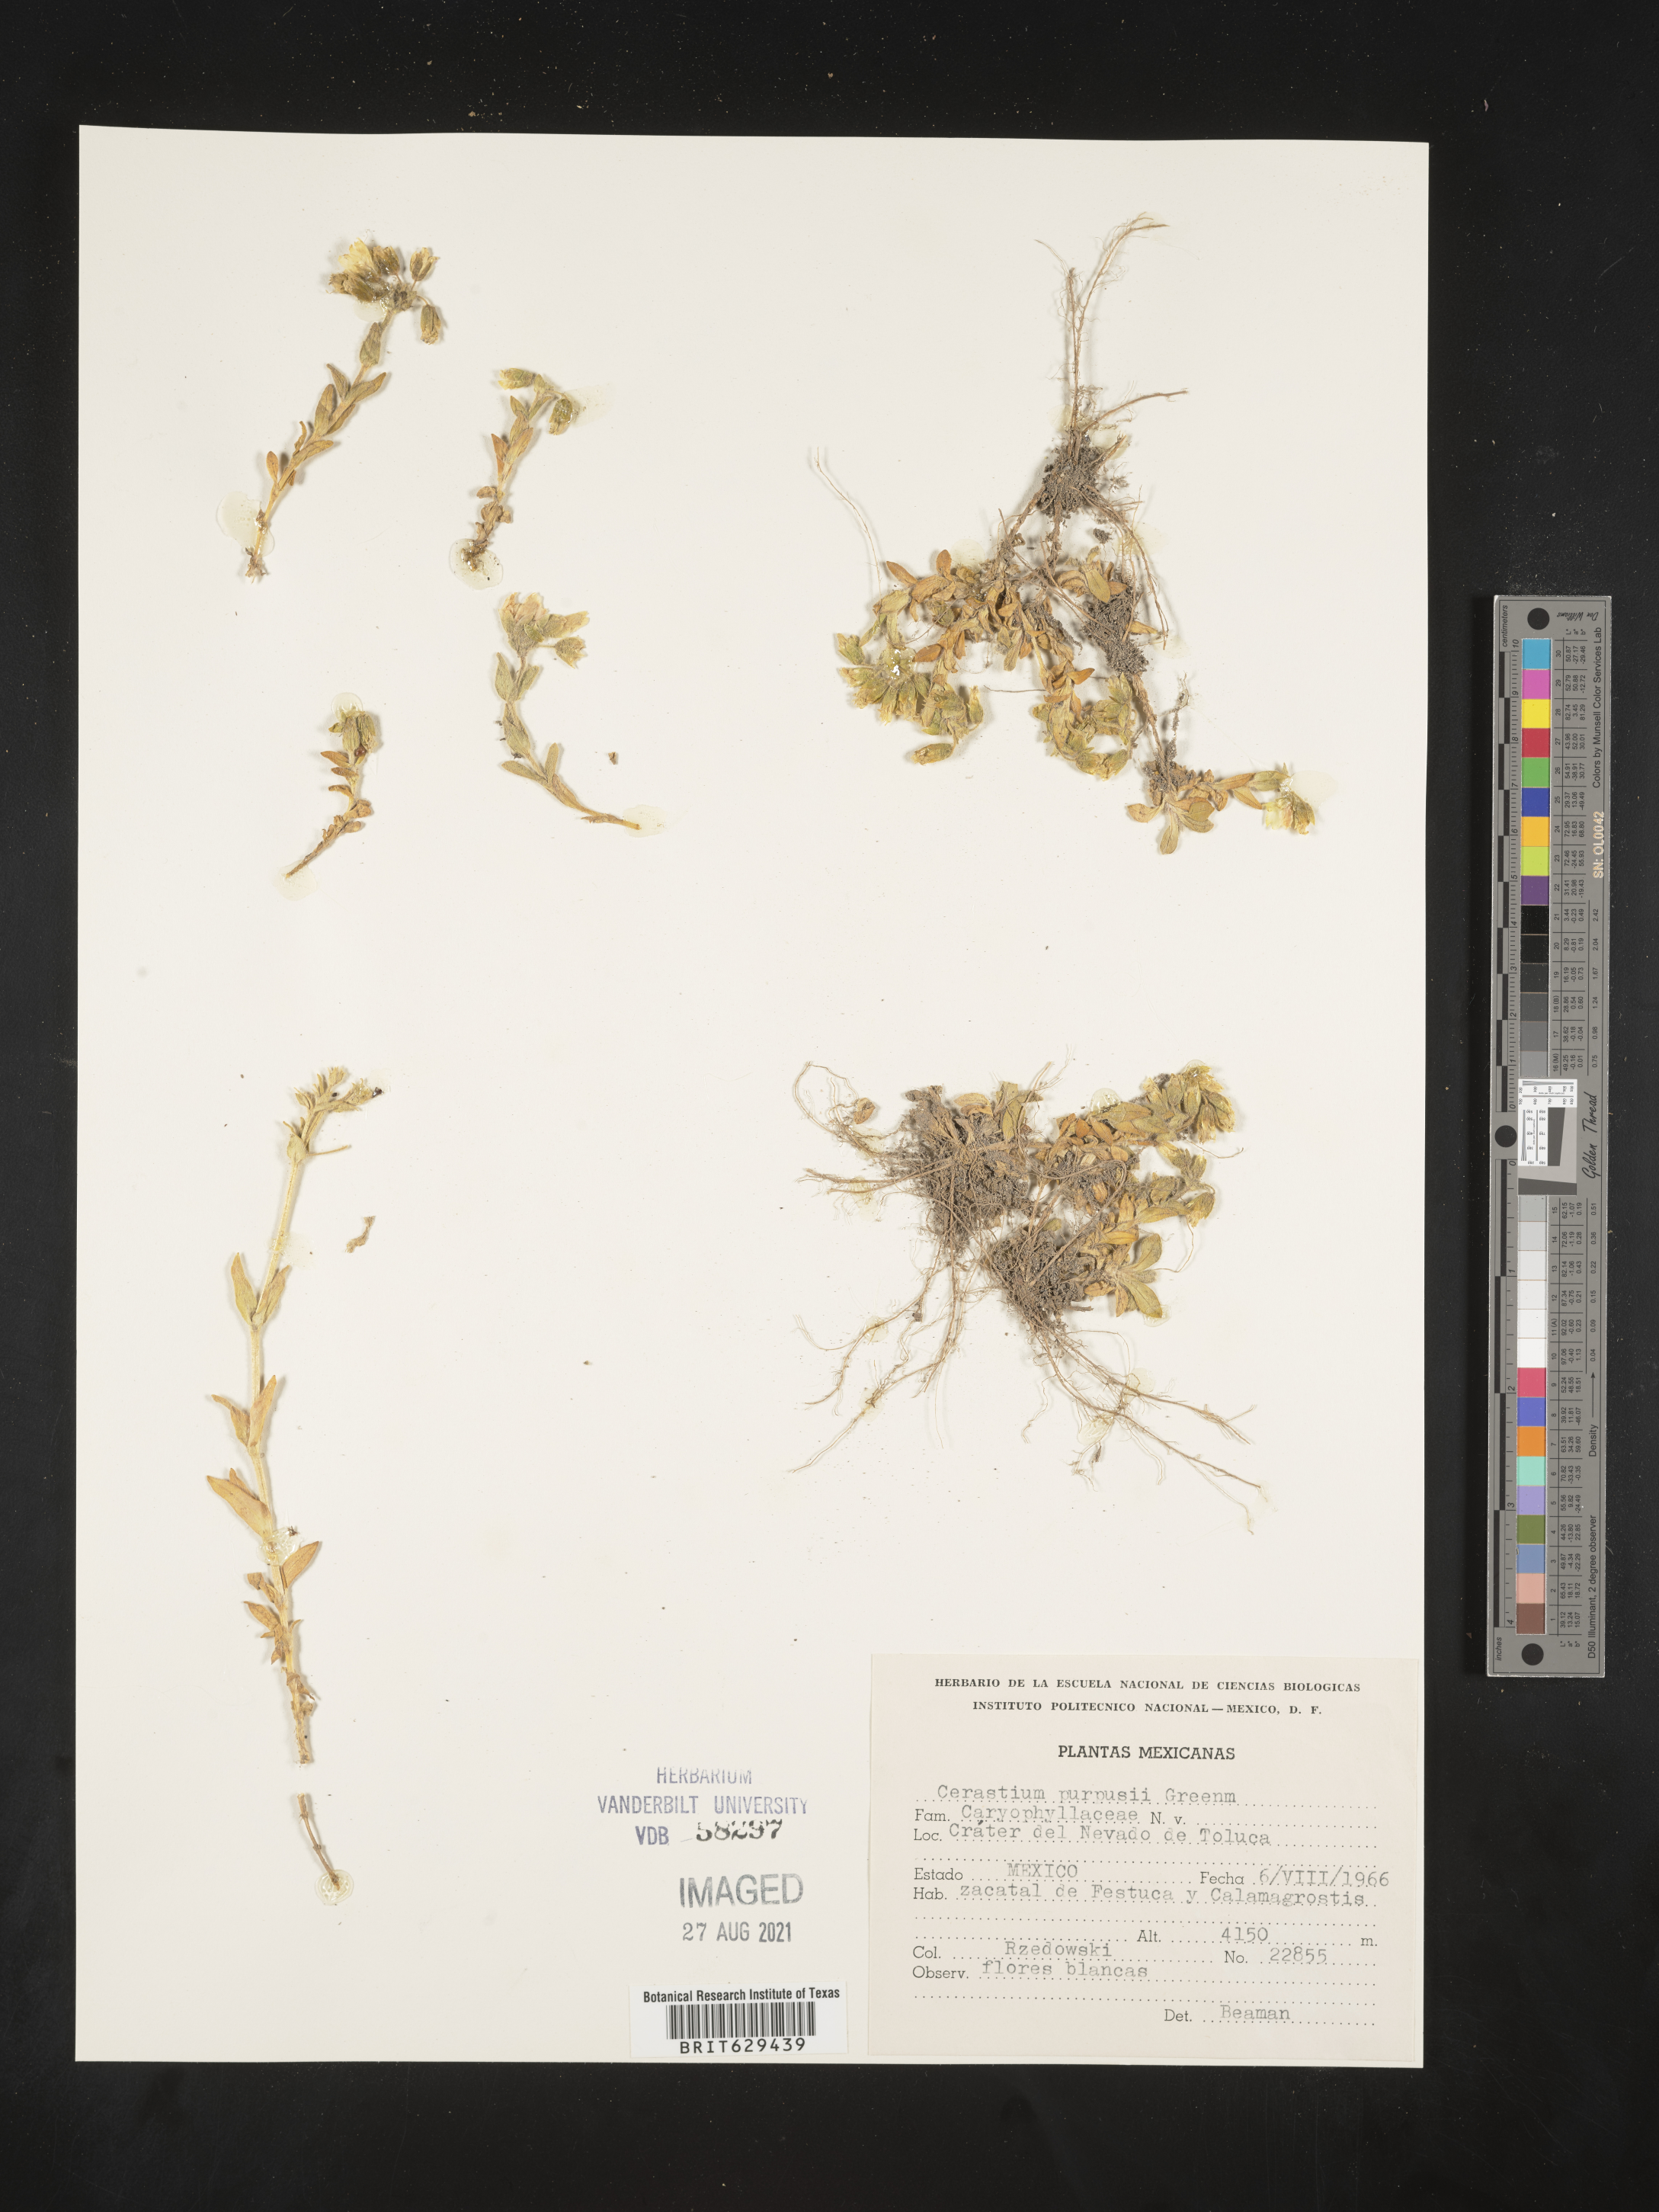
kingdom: Plantae
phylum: Tracheophyta
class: Magnoliopsida
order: Caryophyllales
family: Caryophyllaceae
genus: Cerastium
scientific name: Cerastium
